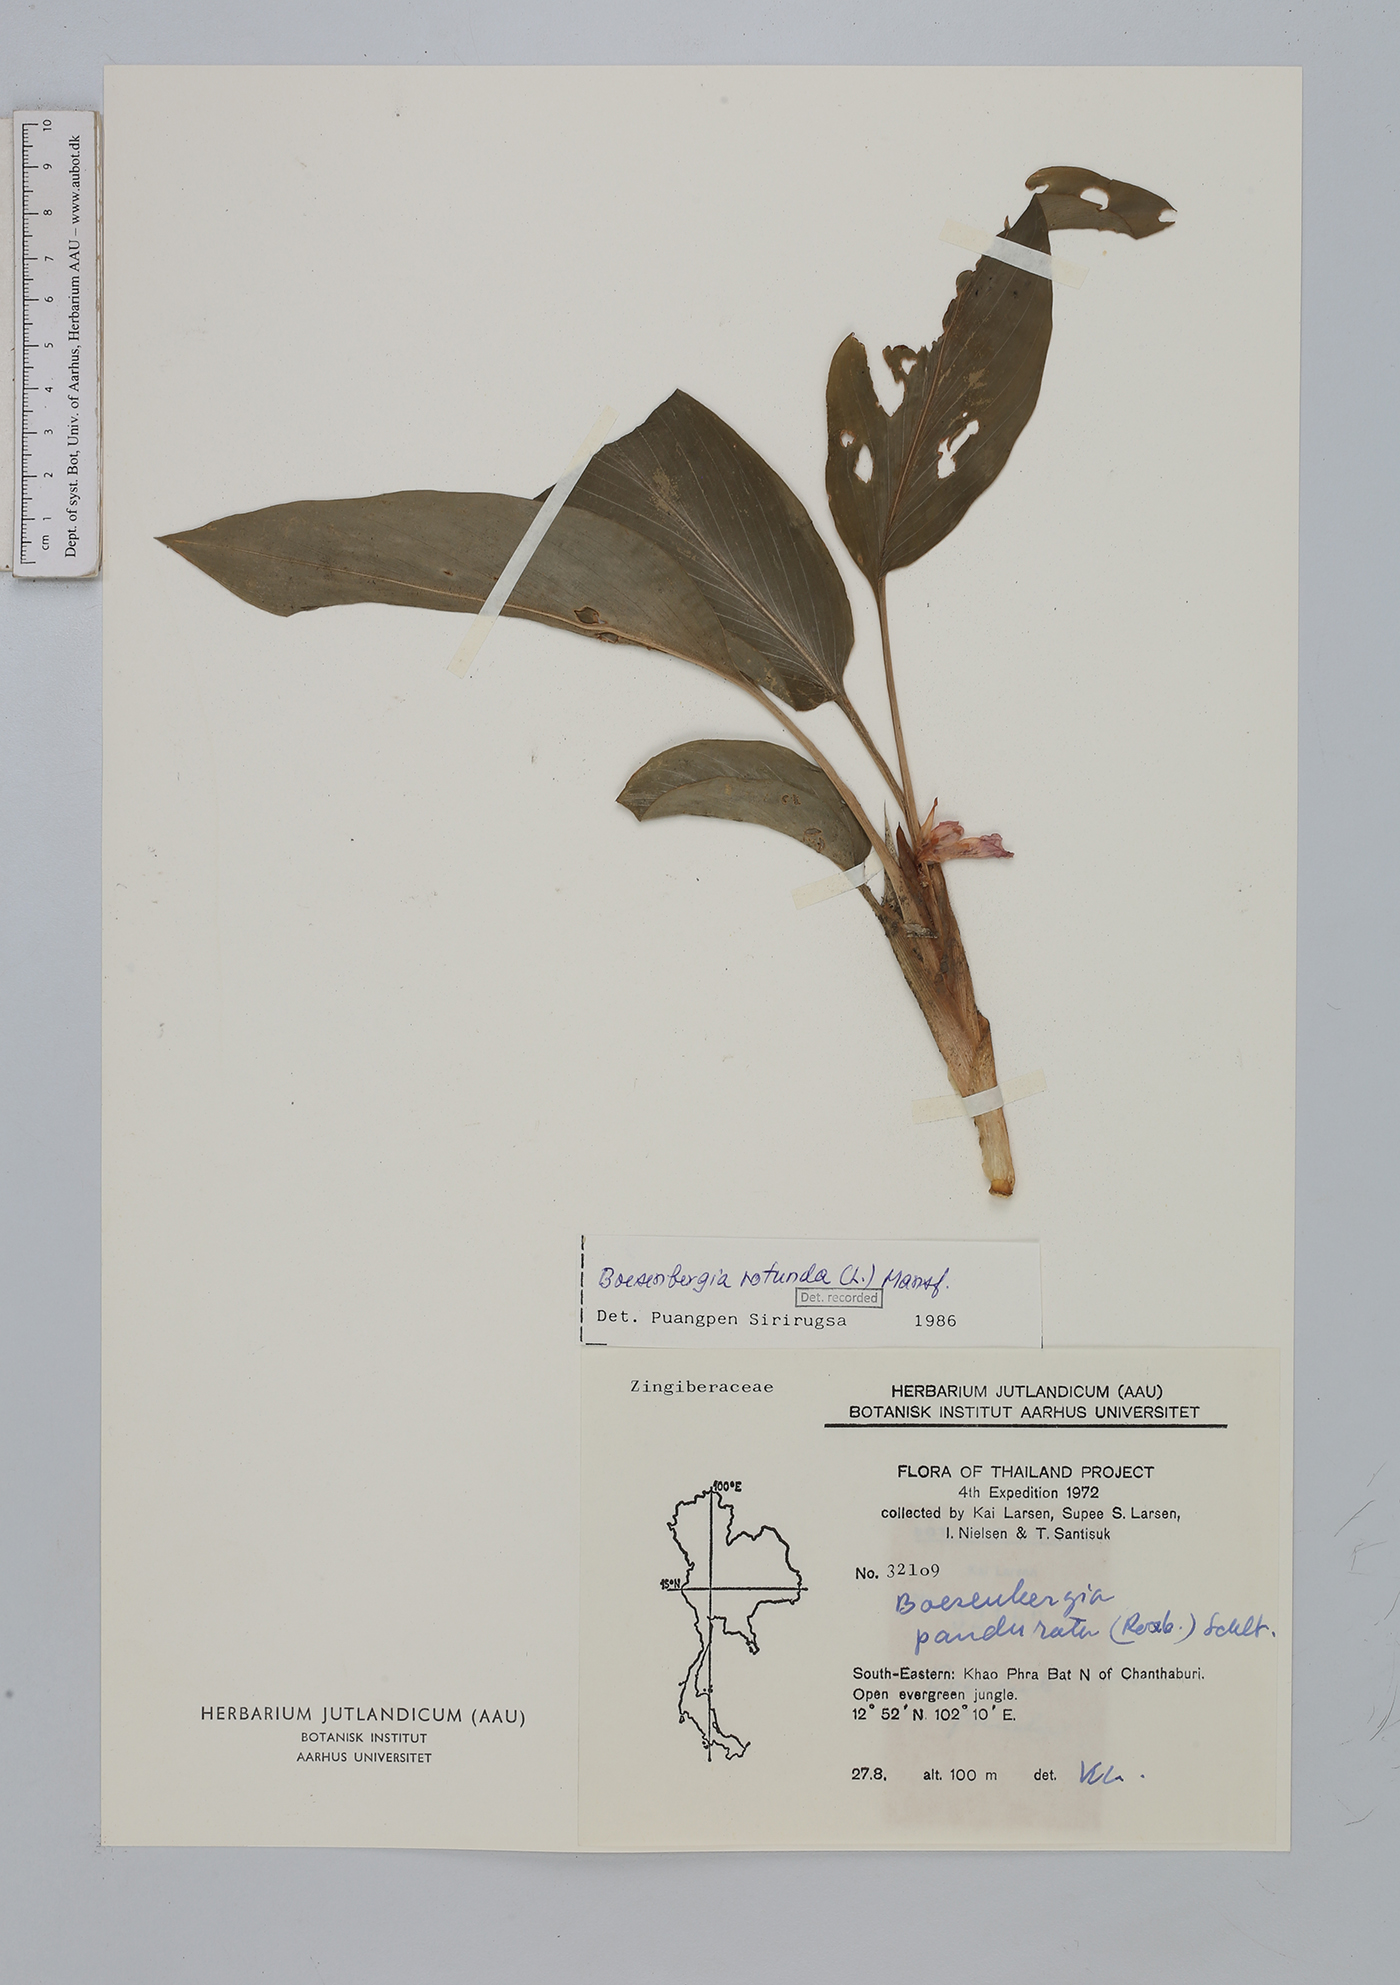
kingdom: Plantae
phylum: Tracheophyta
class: Liliopsida
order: Zingiberales
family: Zingiberaceae
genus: Boesenbergia
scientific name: Boesenbergia rotunda
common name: Chinese ginger
